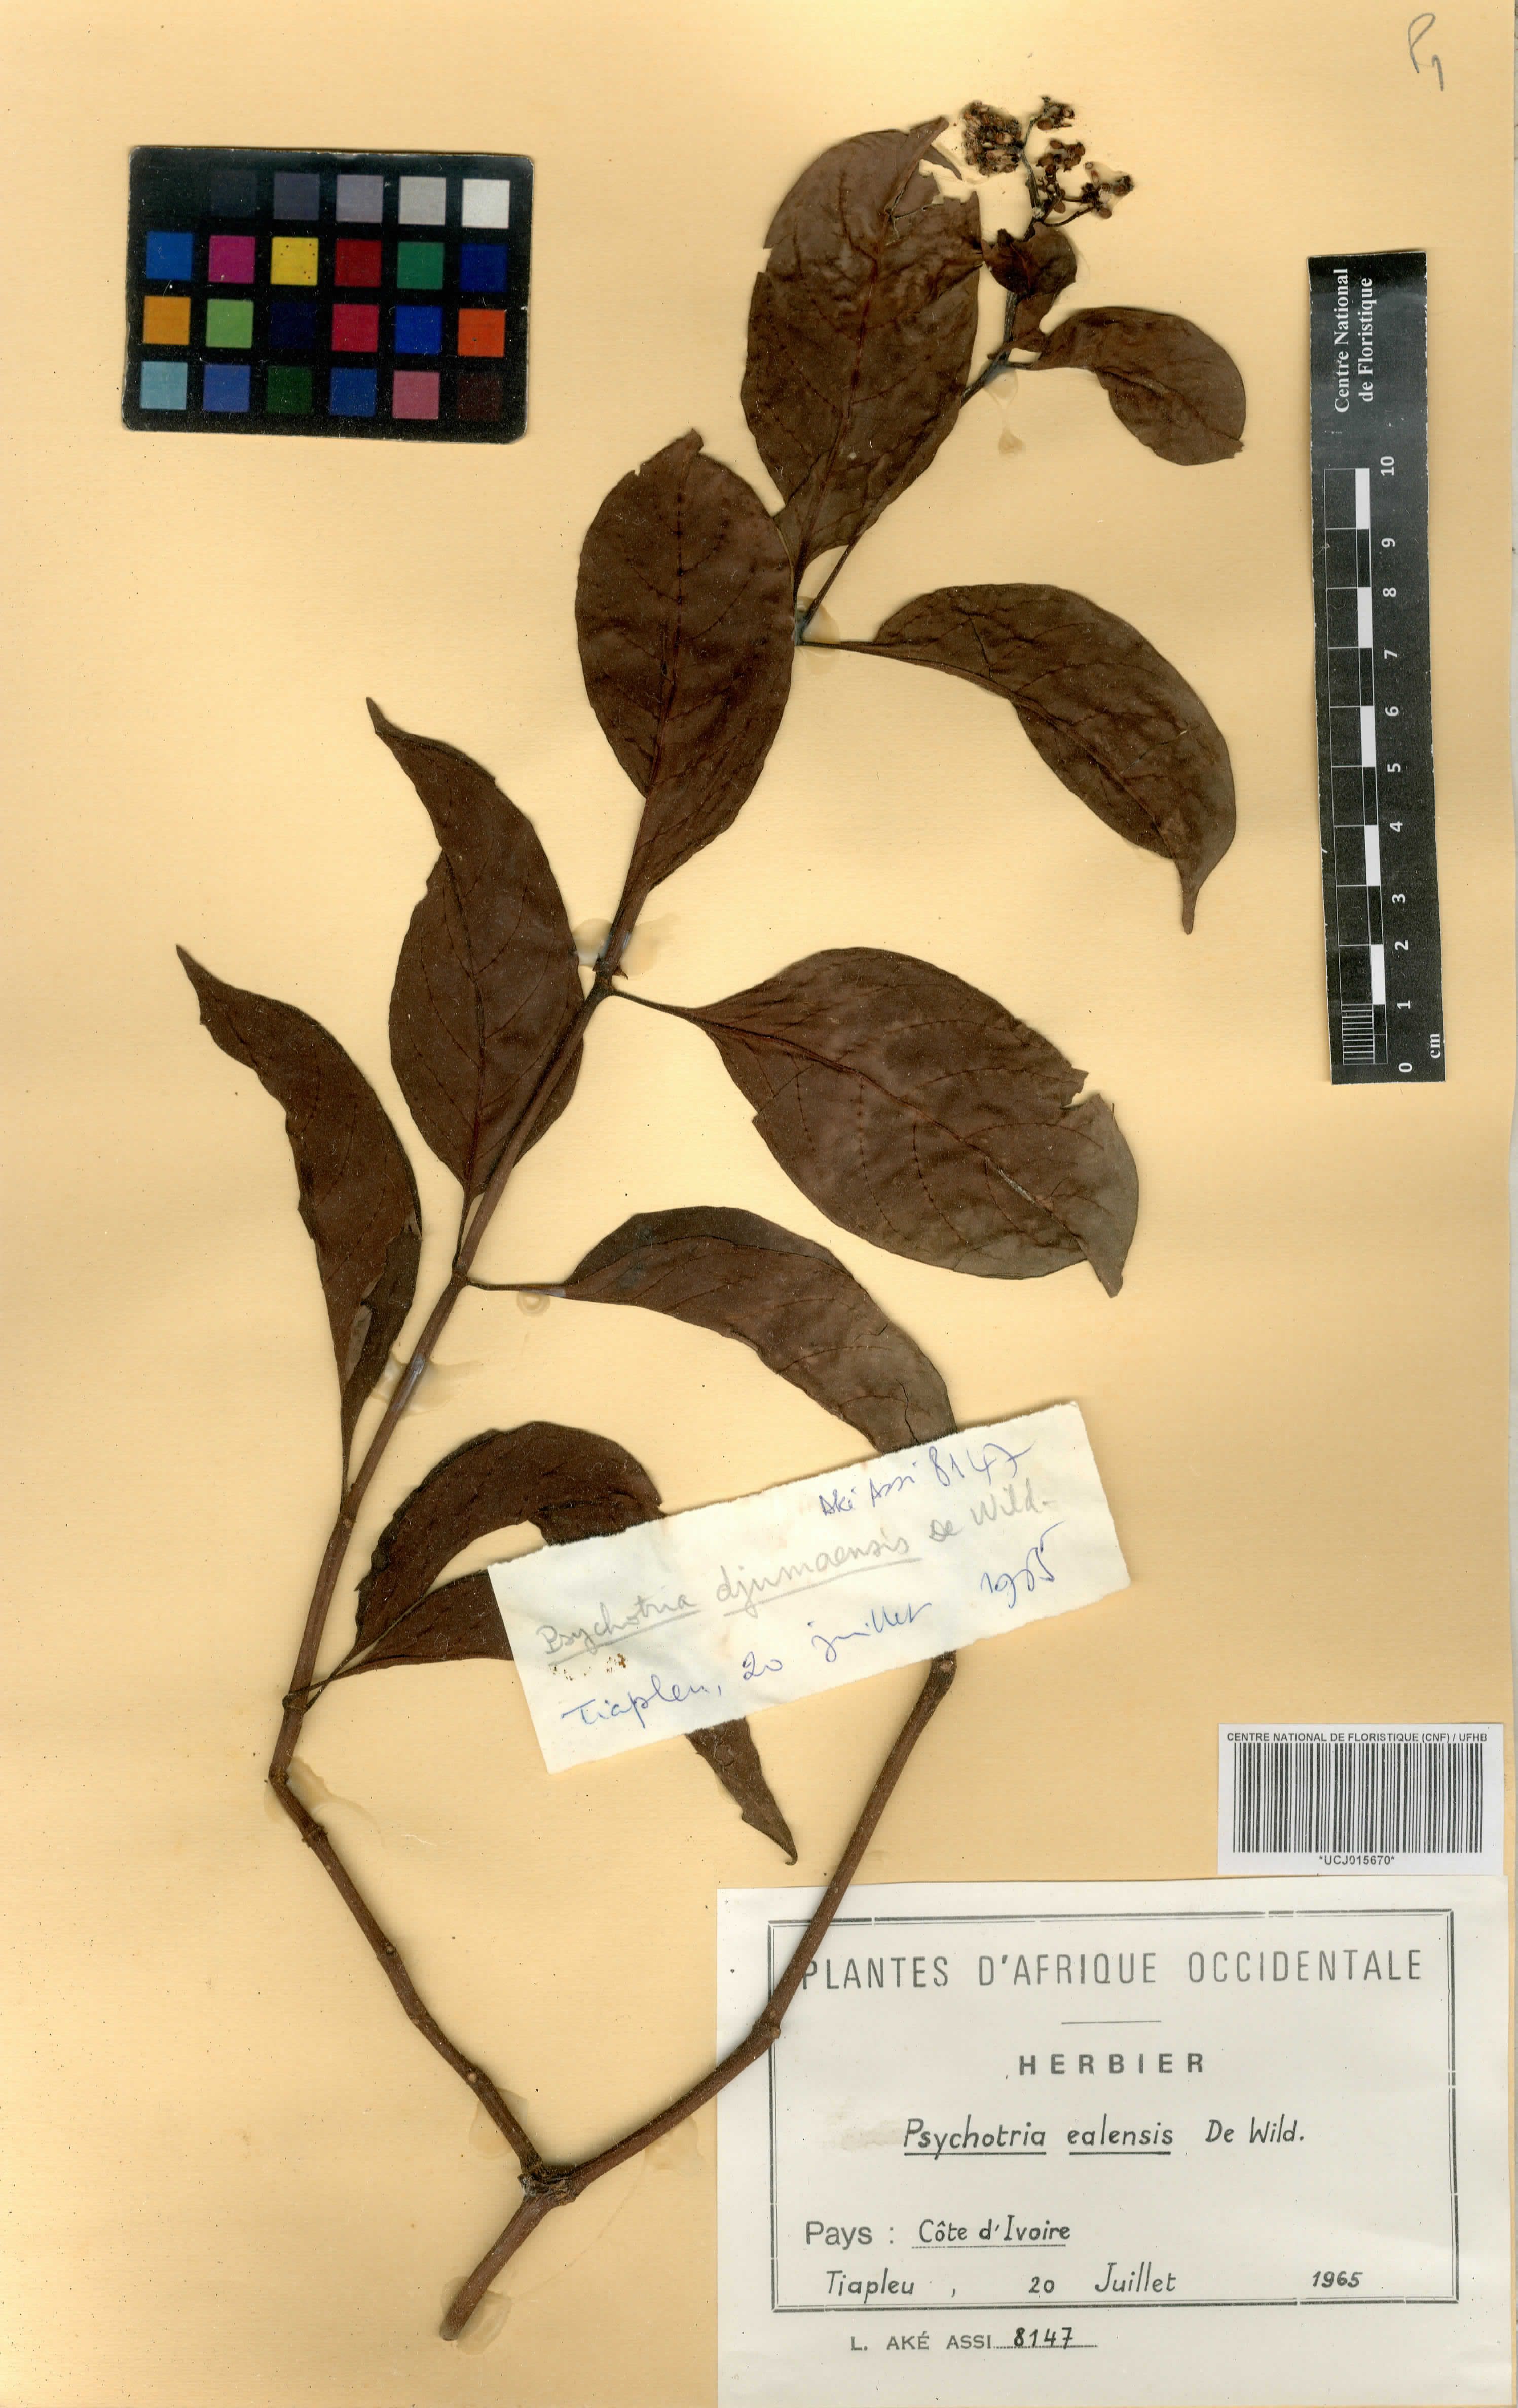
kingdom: Plantae
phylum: Tracheophyta
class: Magnoliopsida
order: Gentianales
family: Rubiaceae
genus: Psychotria
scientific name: Psychotria ealaensis
